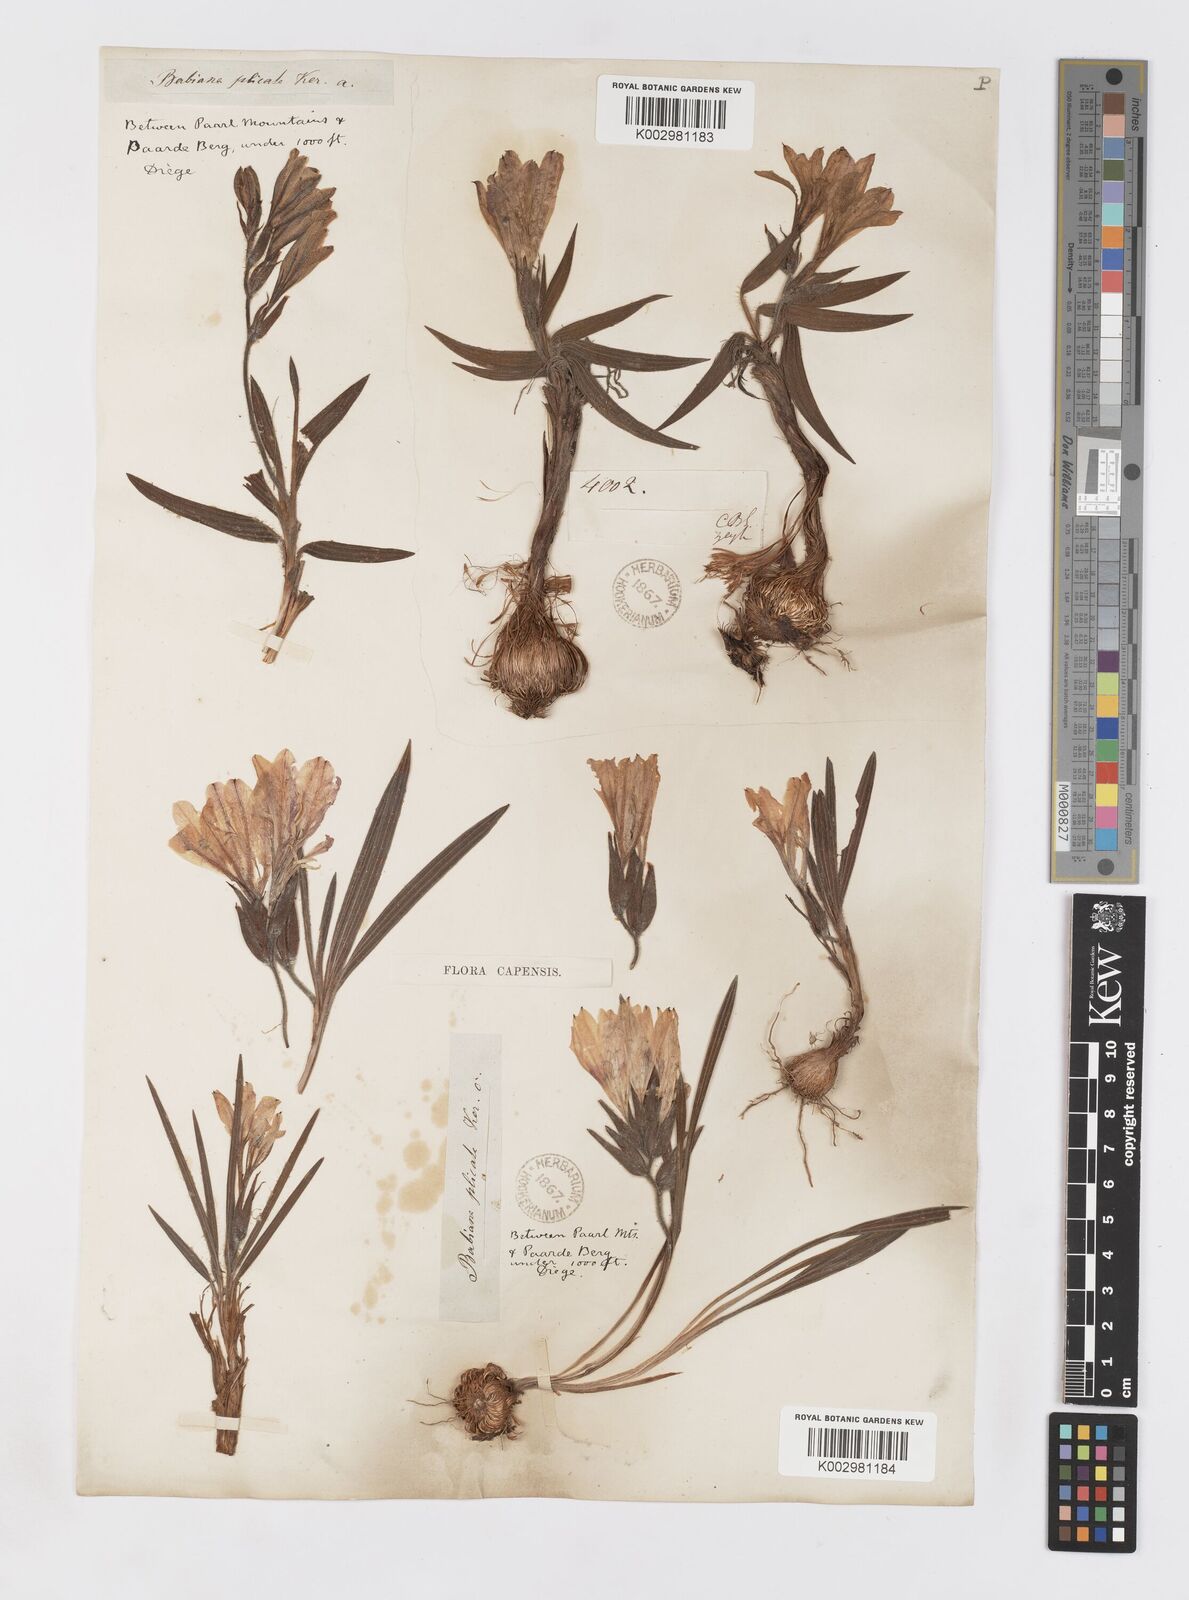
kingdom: Plantae
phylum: Tracheophyta
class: Liliopsida
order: Asparagales
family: Iridaceae
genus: Babiana
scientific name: Babiana fragrans
